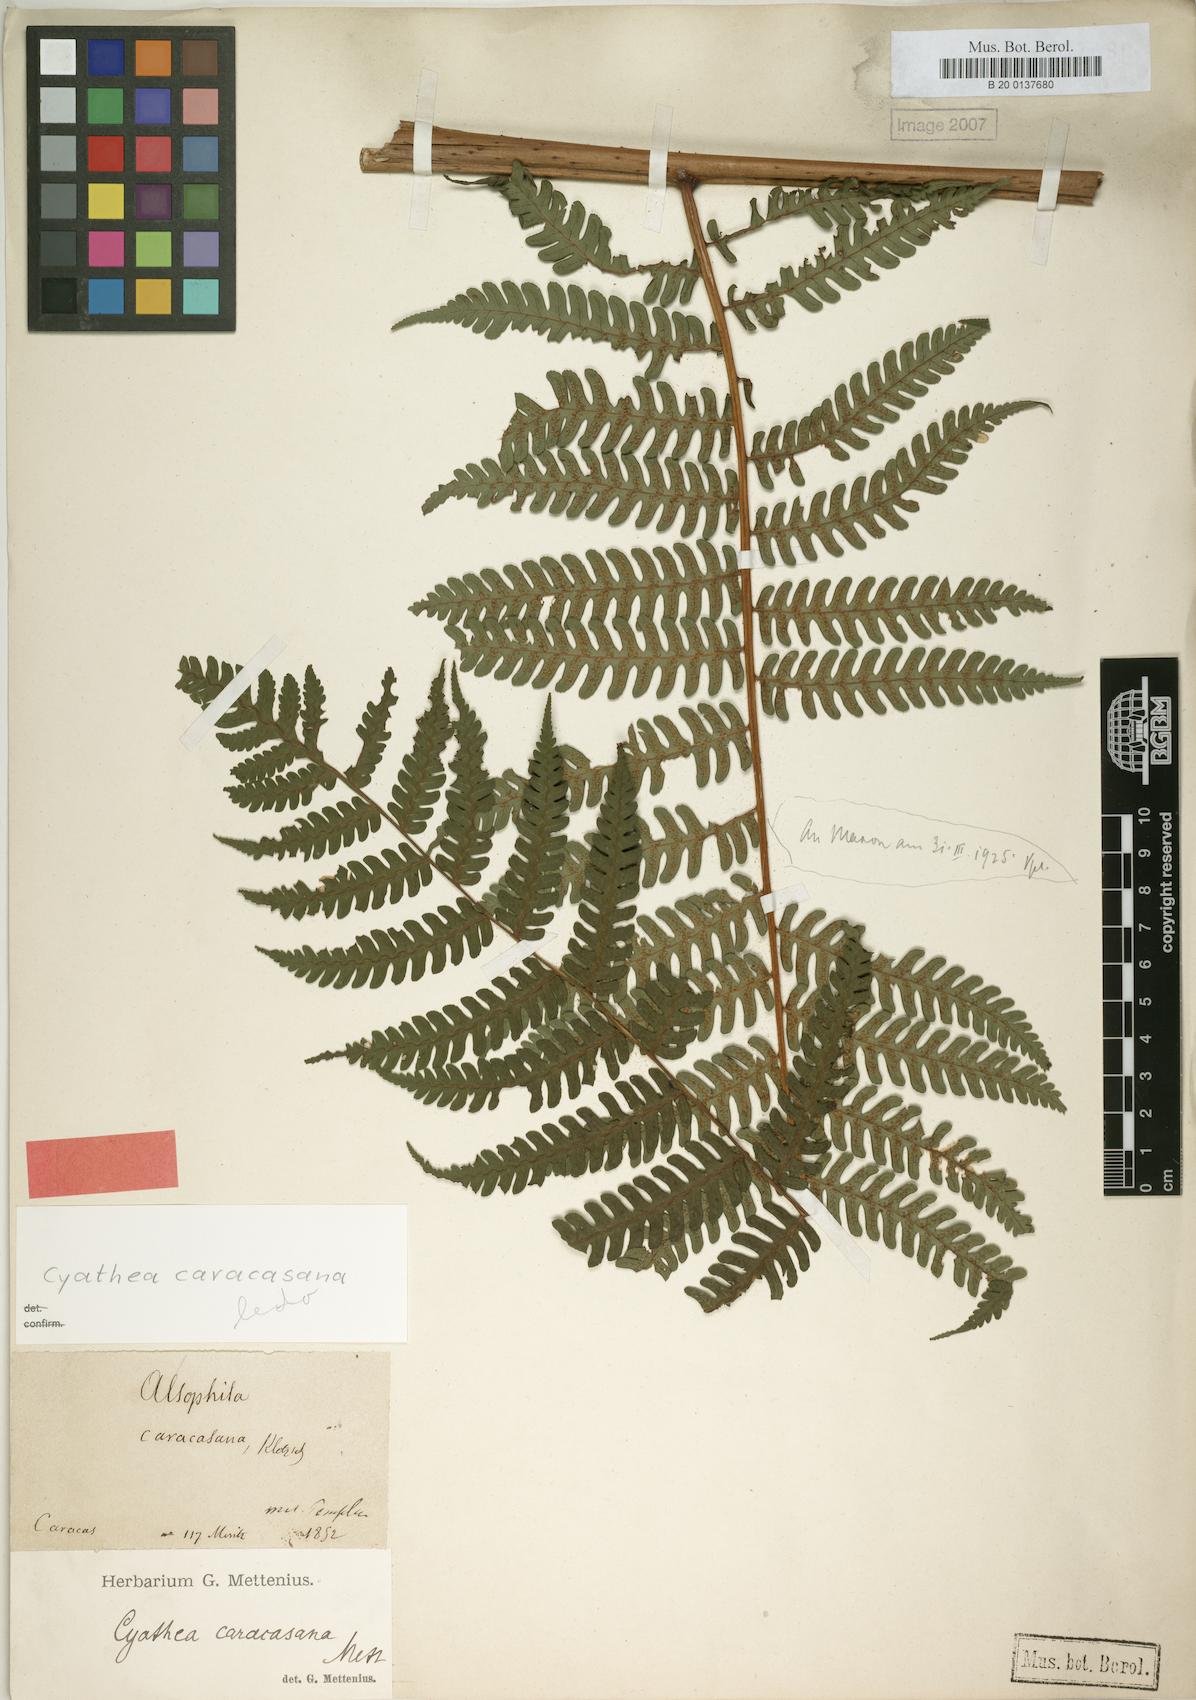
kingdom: Plantae
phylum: Tracheophyta
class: Polypodiopsida
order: Cyatheales
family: Cyatheaceae
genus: Cyathea
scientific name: Cyathea caracasana
